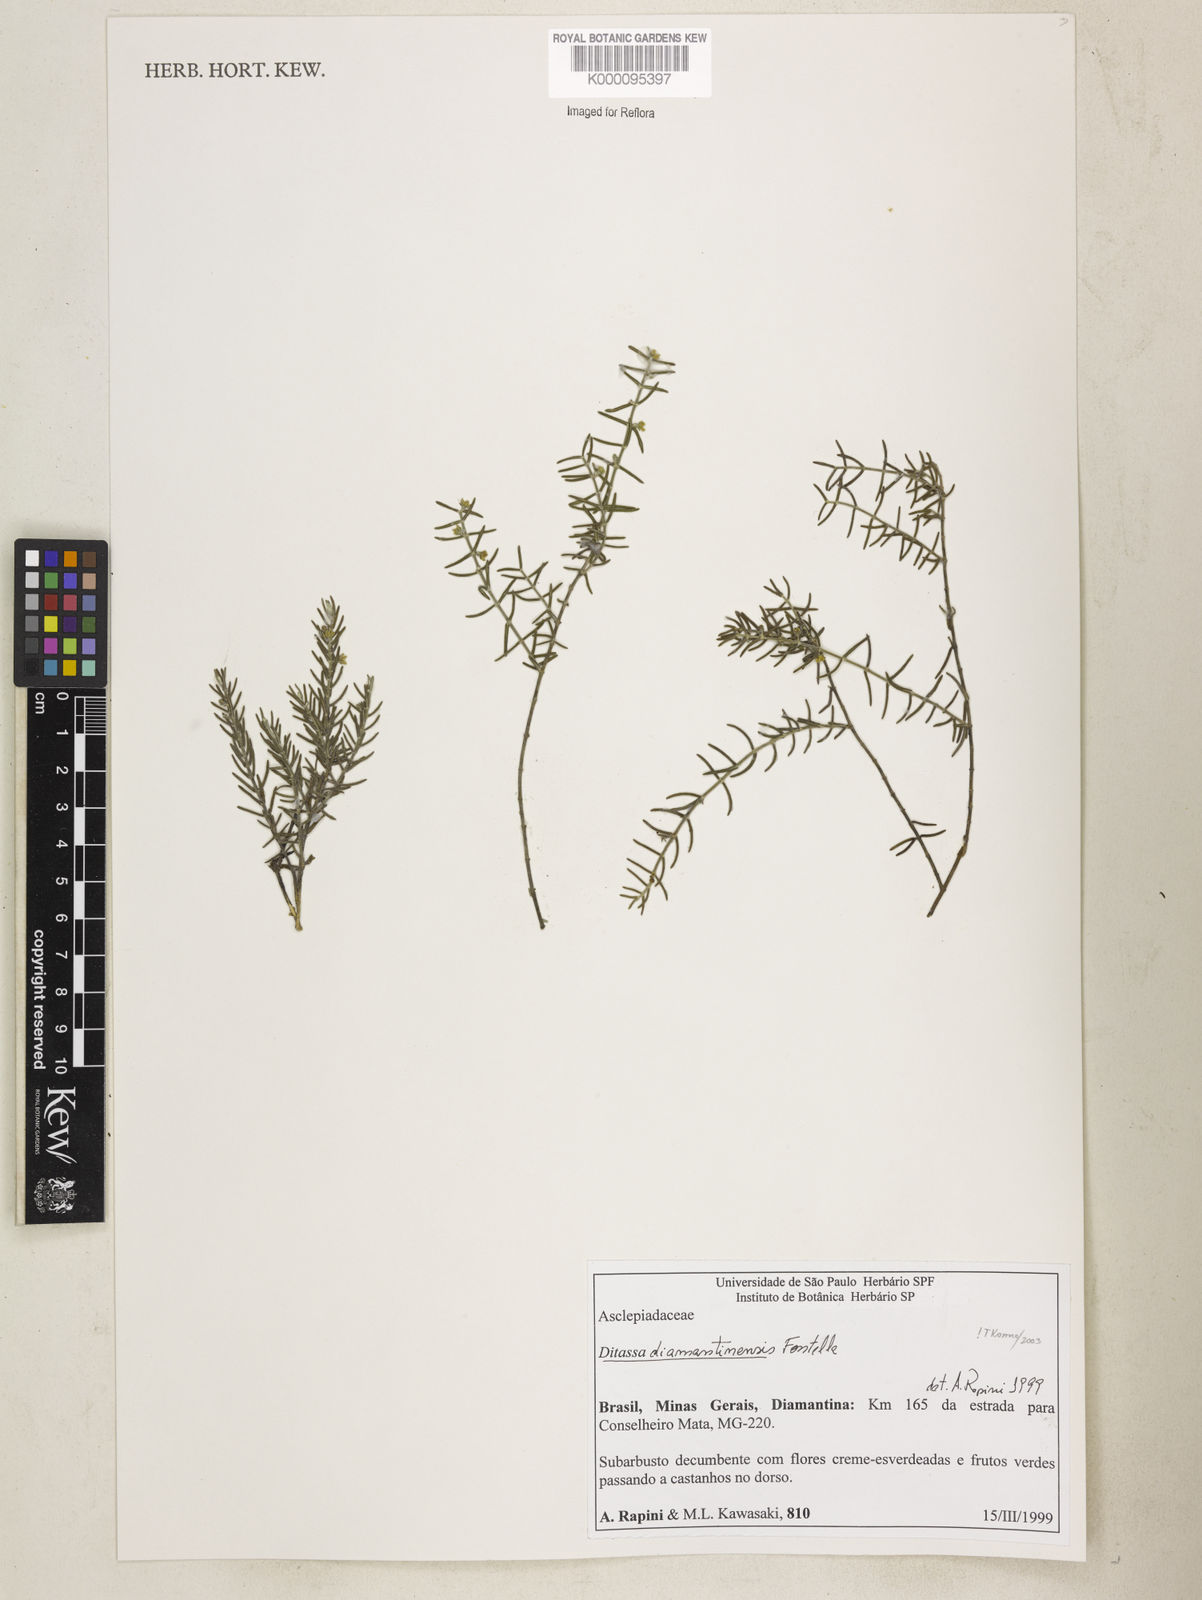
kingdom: Plantae
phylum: Tracheophyta
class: Magnoliopsida
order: Gentianales
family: Apocynaceae
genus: Minaria
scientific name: Minaria diamantinensis
